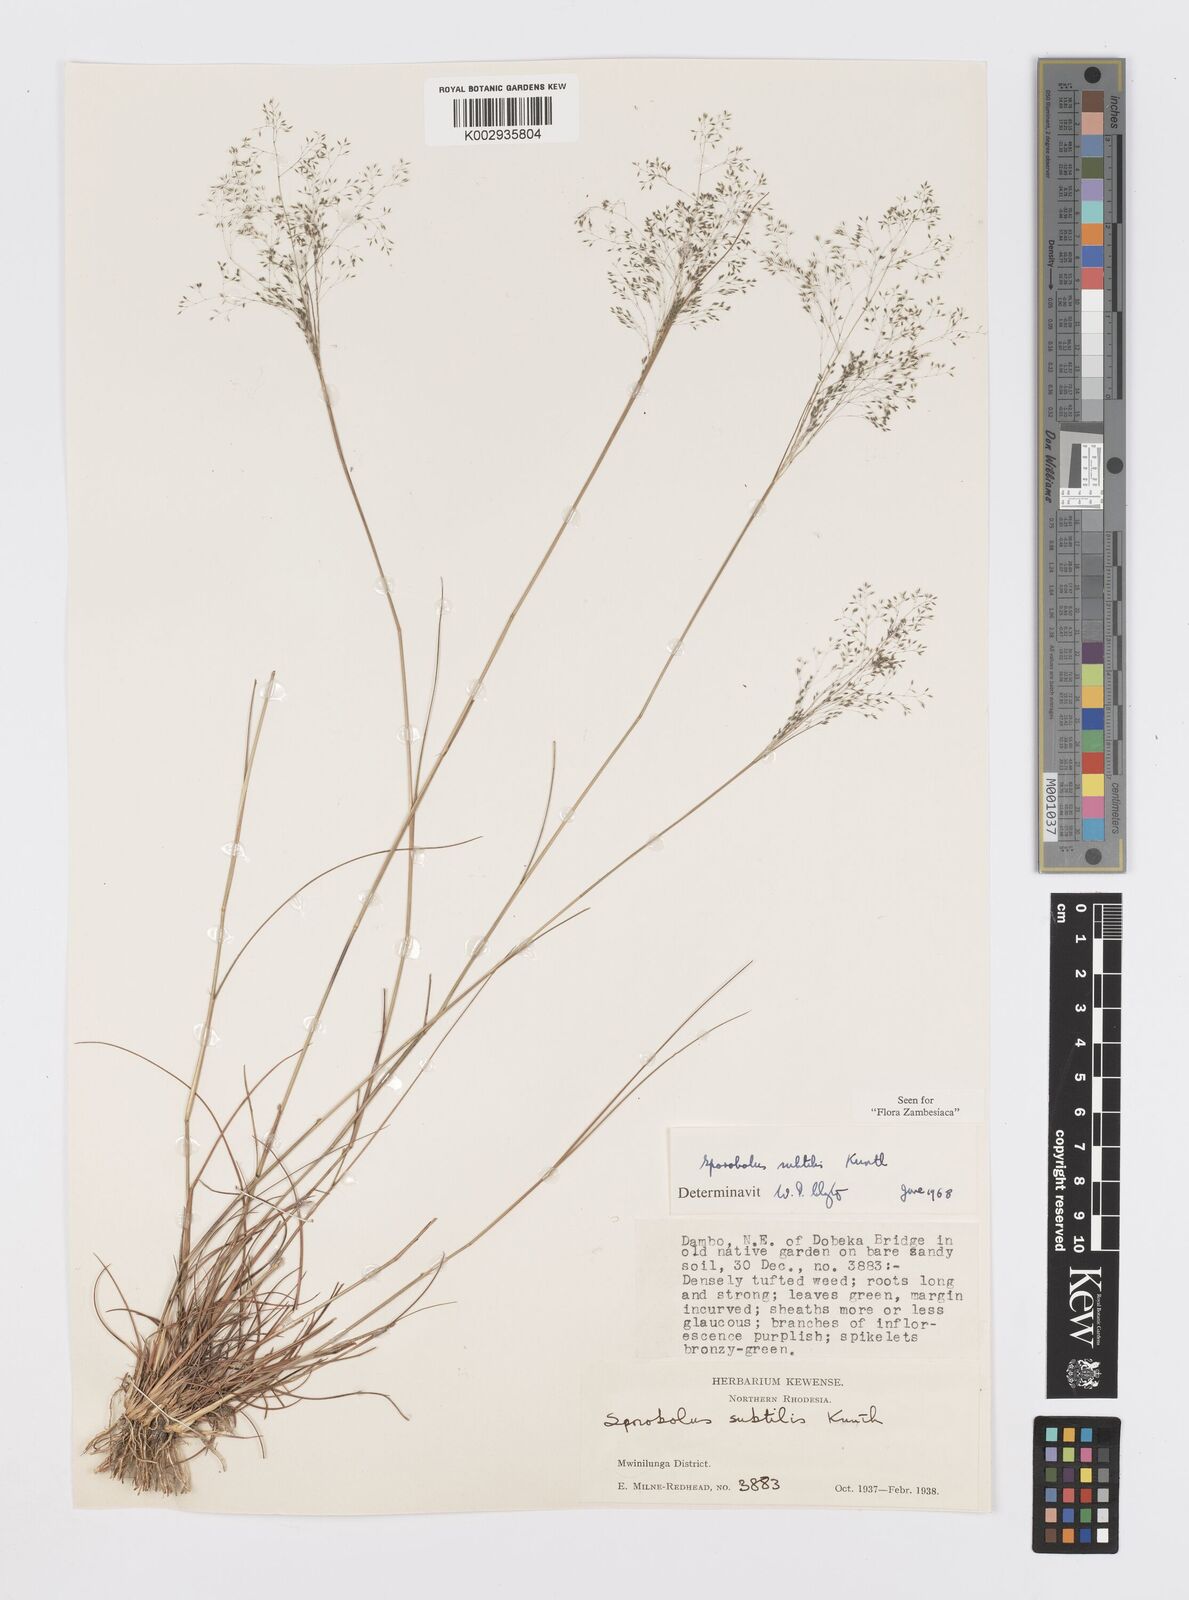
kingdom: Plantae
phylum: Tracheophyta
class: Liliopsida
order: Poales
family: Poaceae
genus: Sporobolus
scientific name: Sporobolus subtilis
